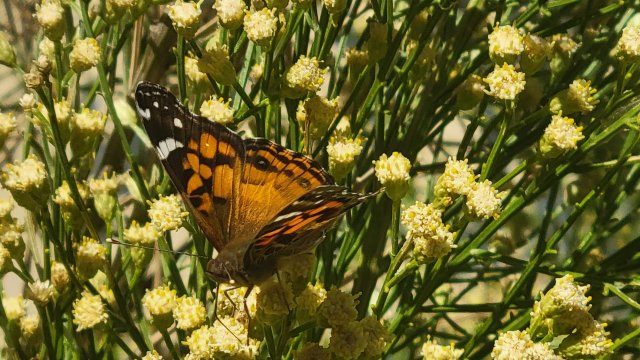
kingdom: Animalia
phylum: Arthropoda
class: Insecta
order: Lepidoptera
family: Nymphalidae
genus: Vanessa
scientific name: Vanessa virginiensis
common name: American Lady
